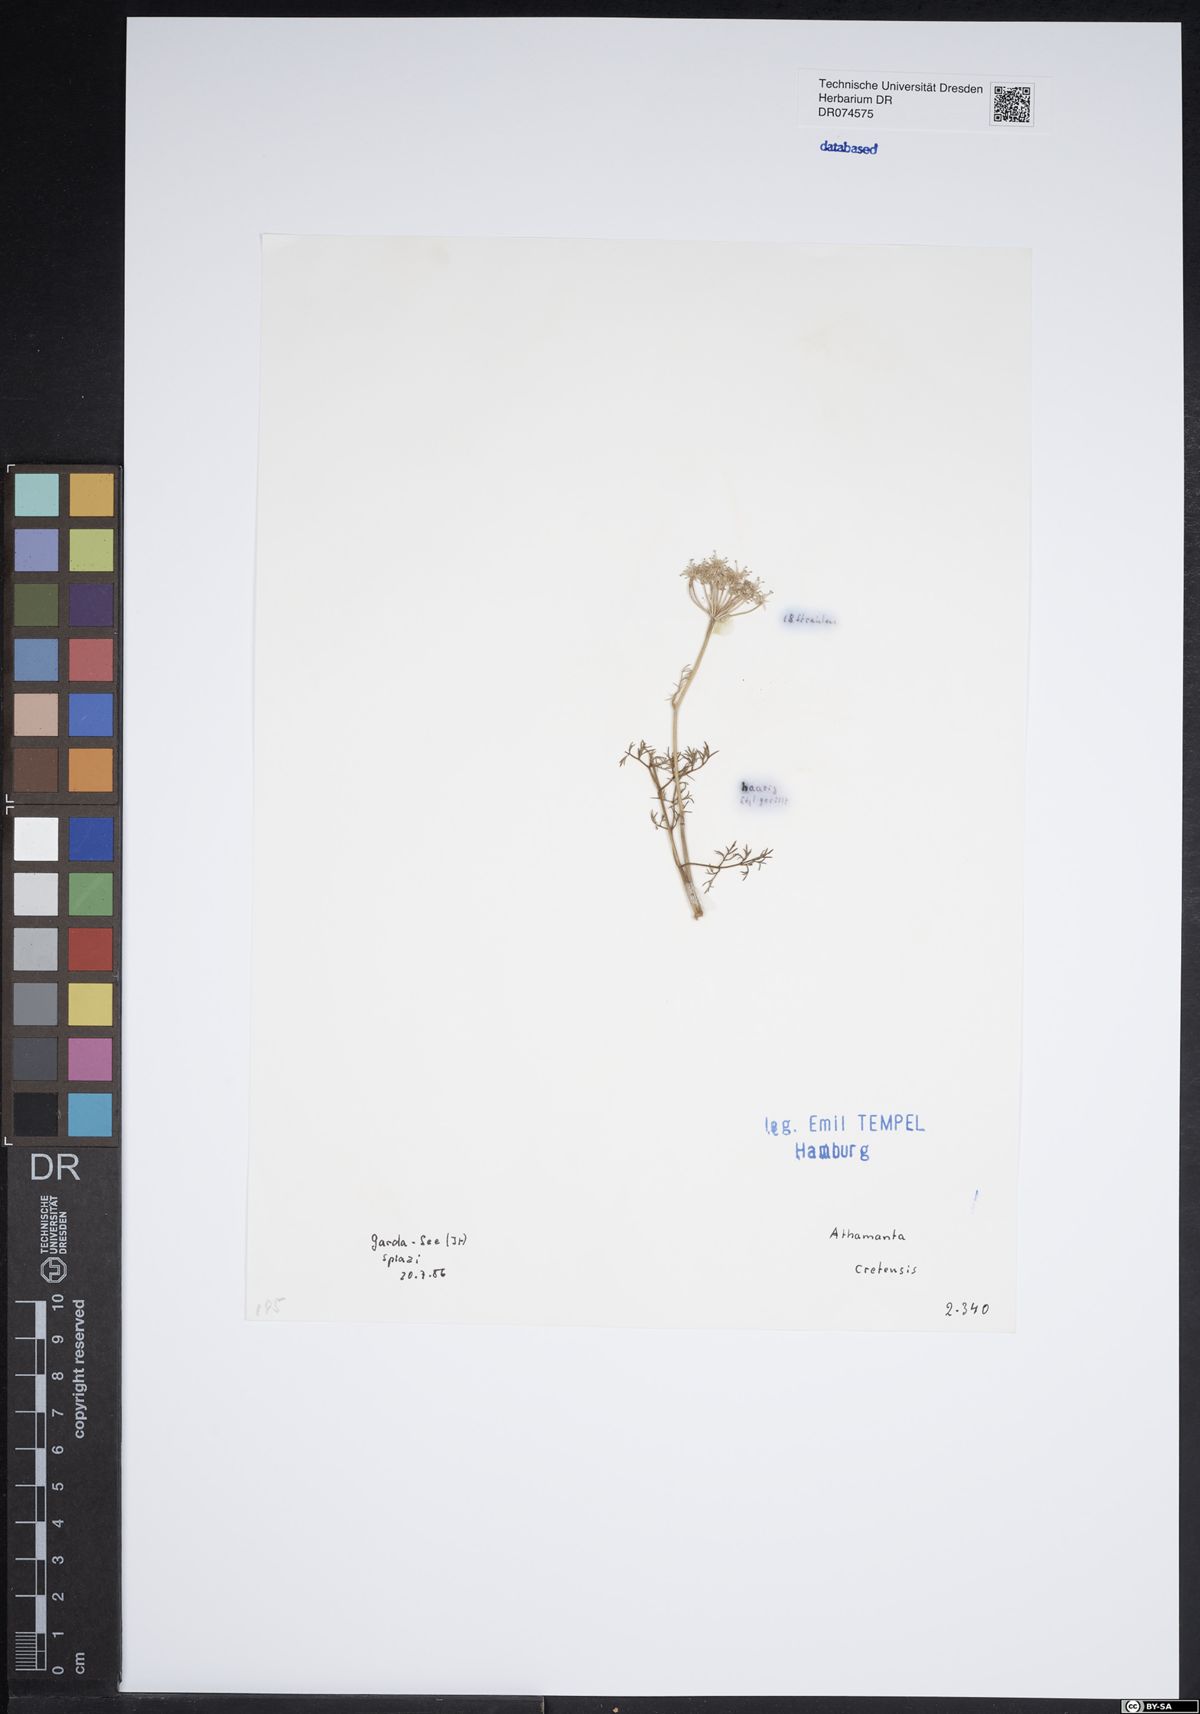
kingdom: Plantae
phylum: Tracheophyta
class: Magnoliopsida
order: Apiales
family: Apiaceae
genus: Athamanta
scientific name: Athamanta cretensis
